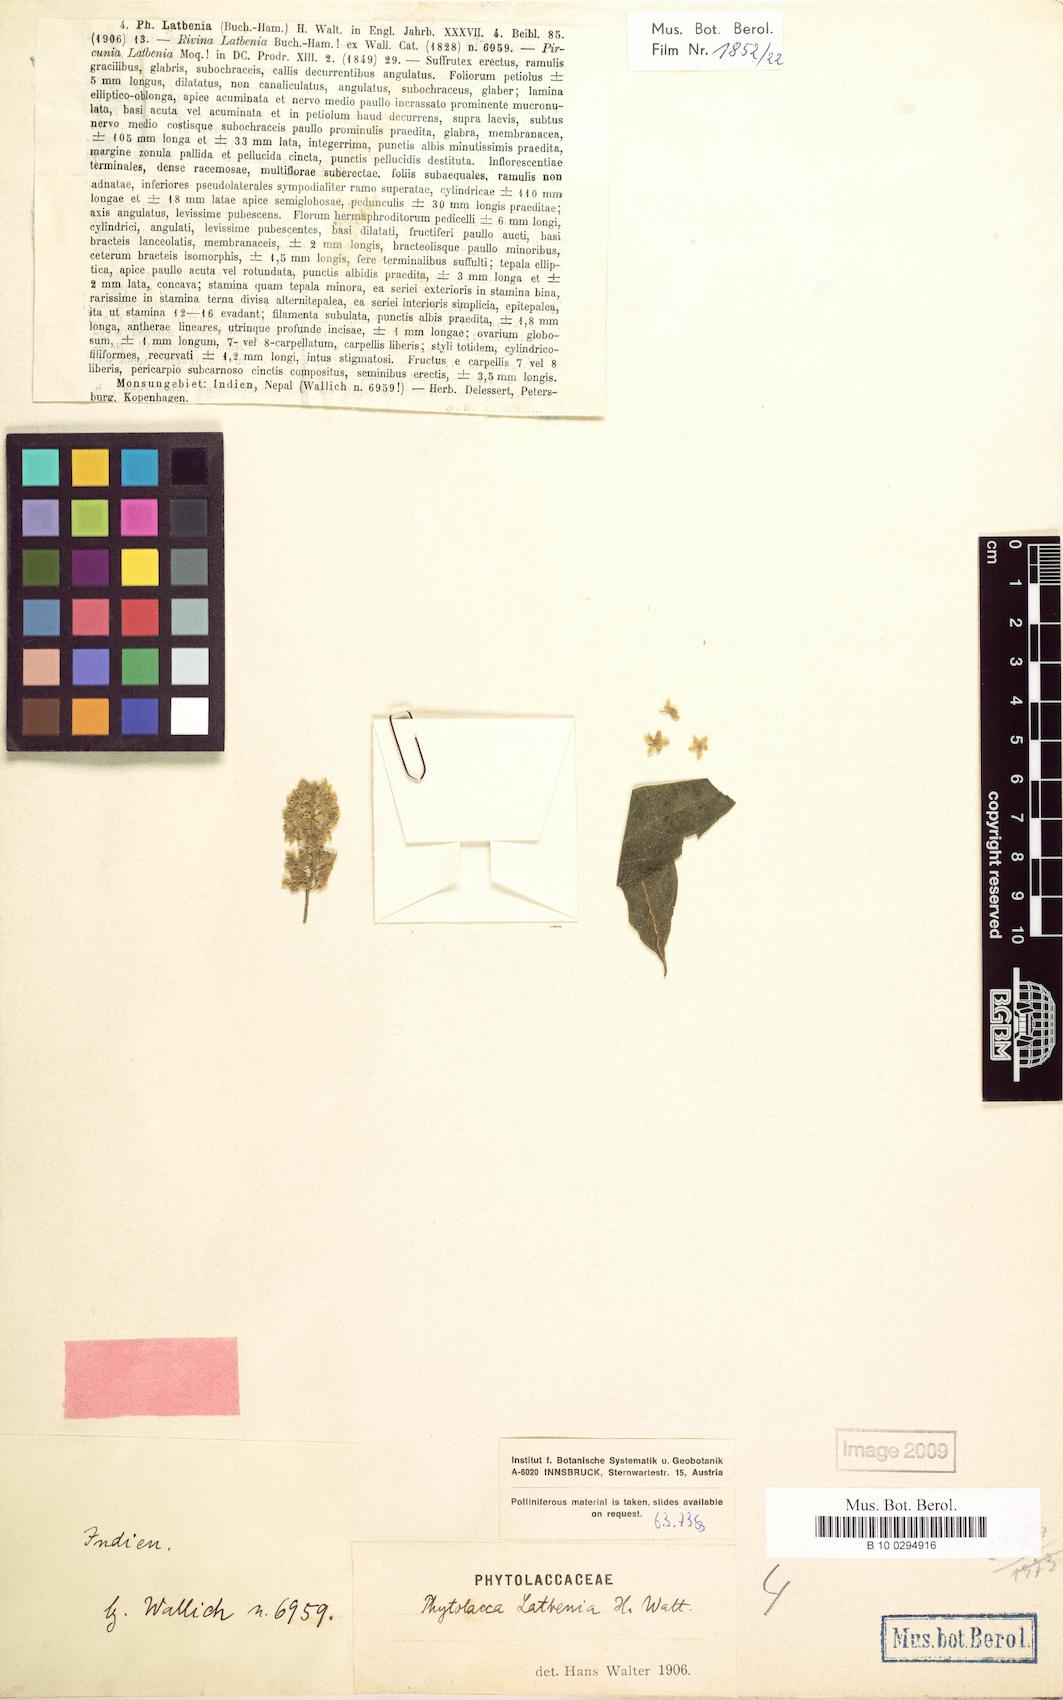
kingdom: Plantae
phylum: Tracheophyta
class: Magnoliopsida
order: Caryophyllales
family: Phytolaccaceae
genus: Phytolacca
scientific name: Phytolacca latbenia
